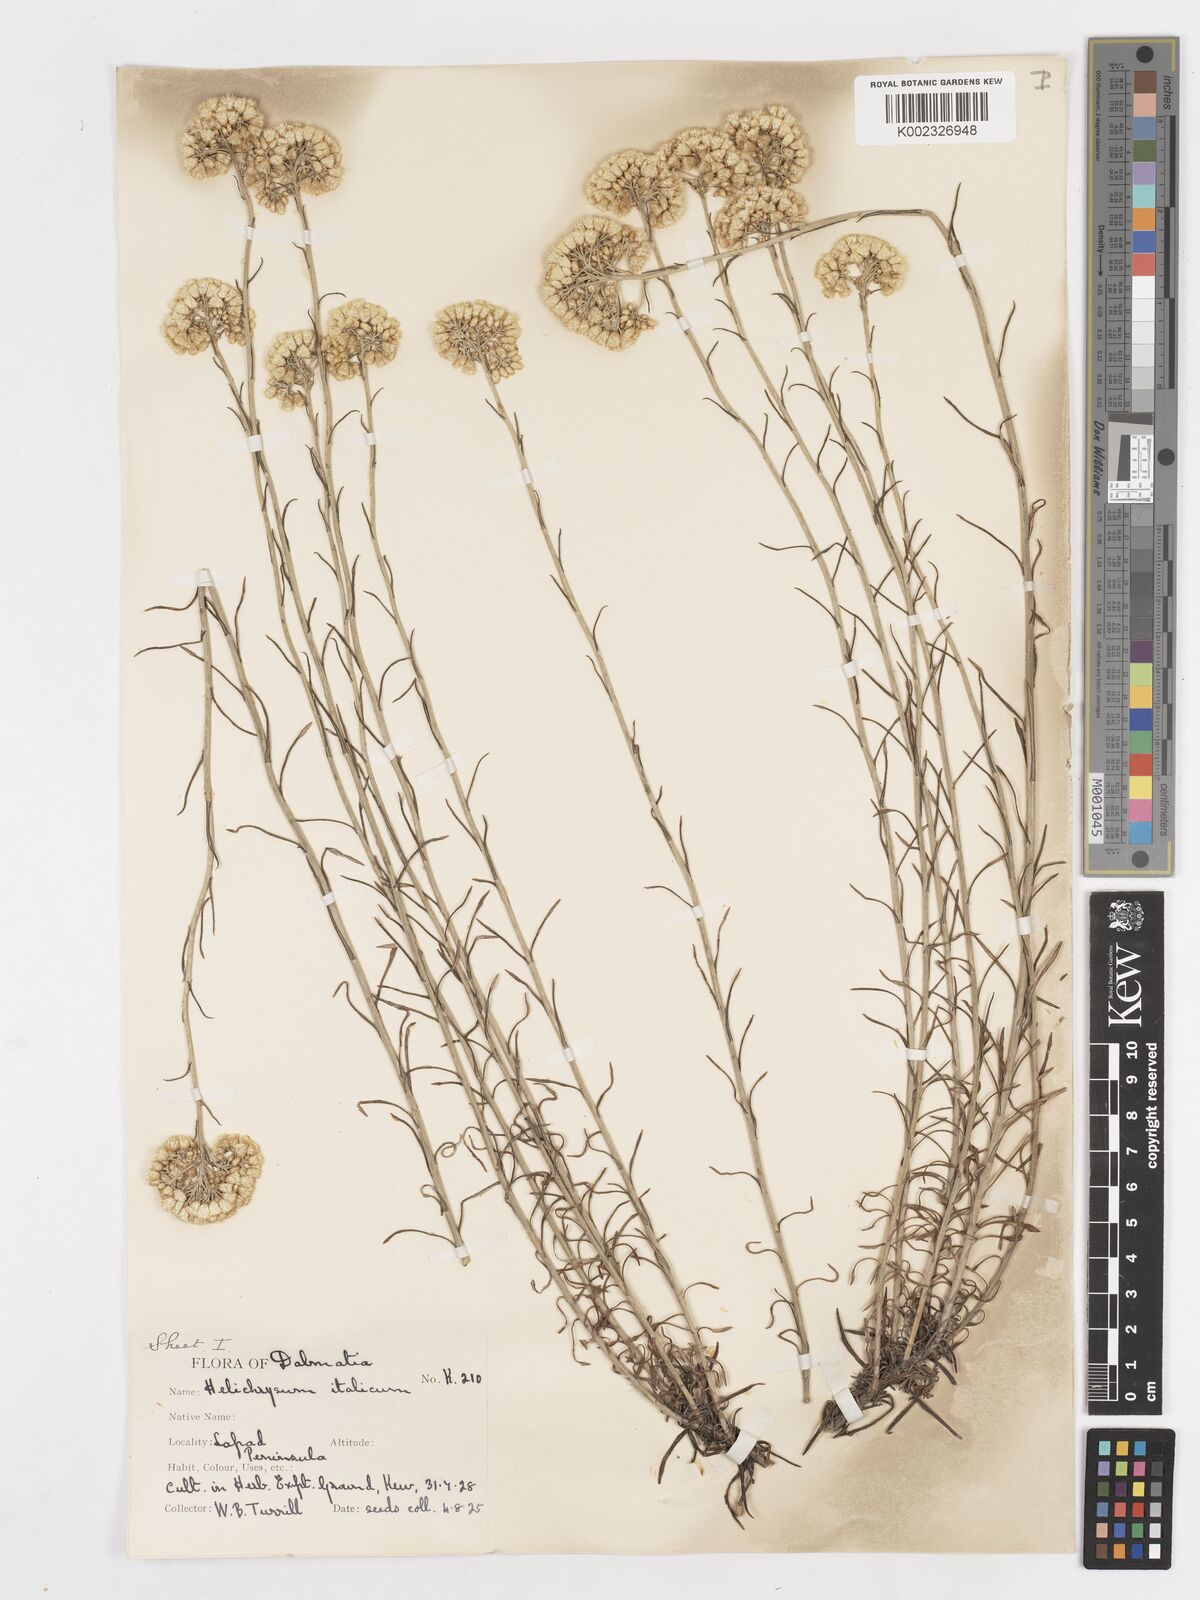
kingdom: Plantae
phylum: Tracheophyta
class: Magnoliopsida
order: Asterales
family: Asteraceae
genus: Helichrysum
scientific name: Helichrysum italicum
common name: Curryplant
